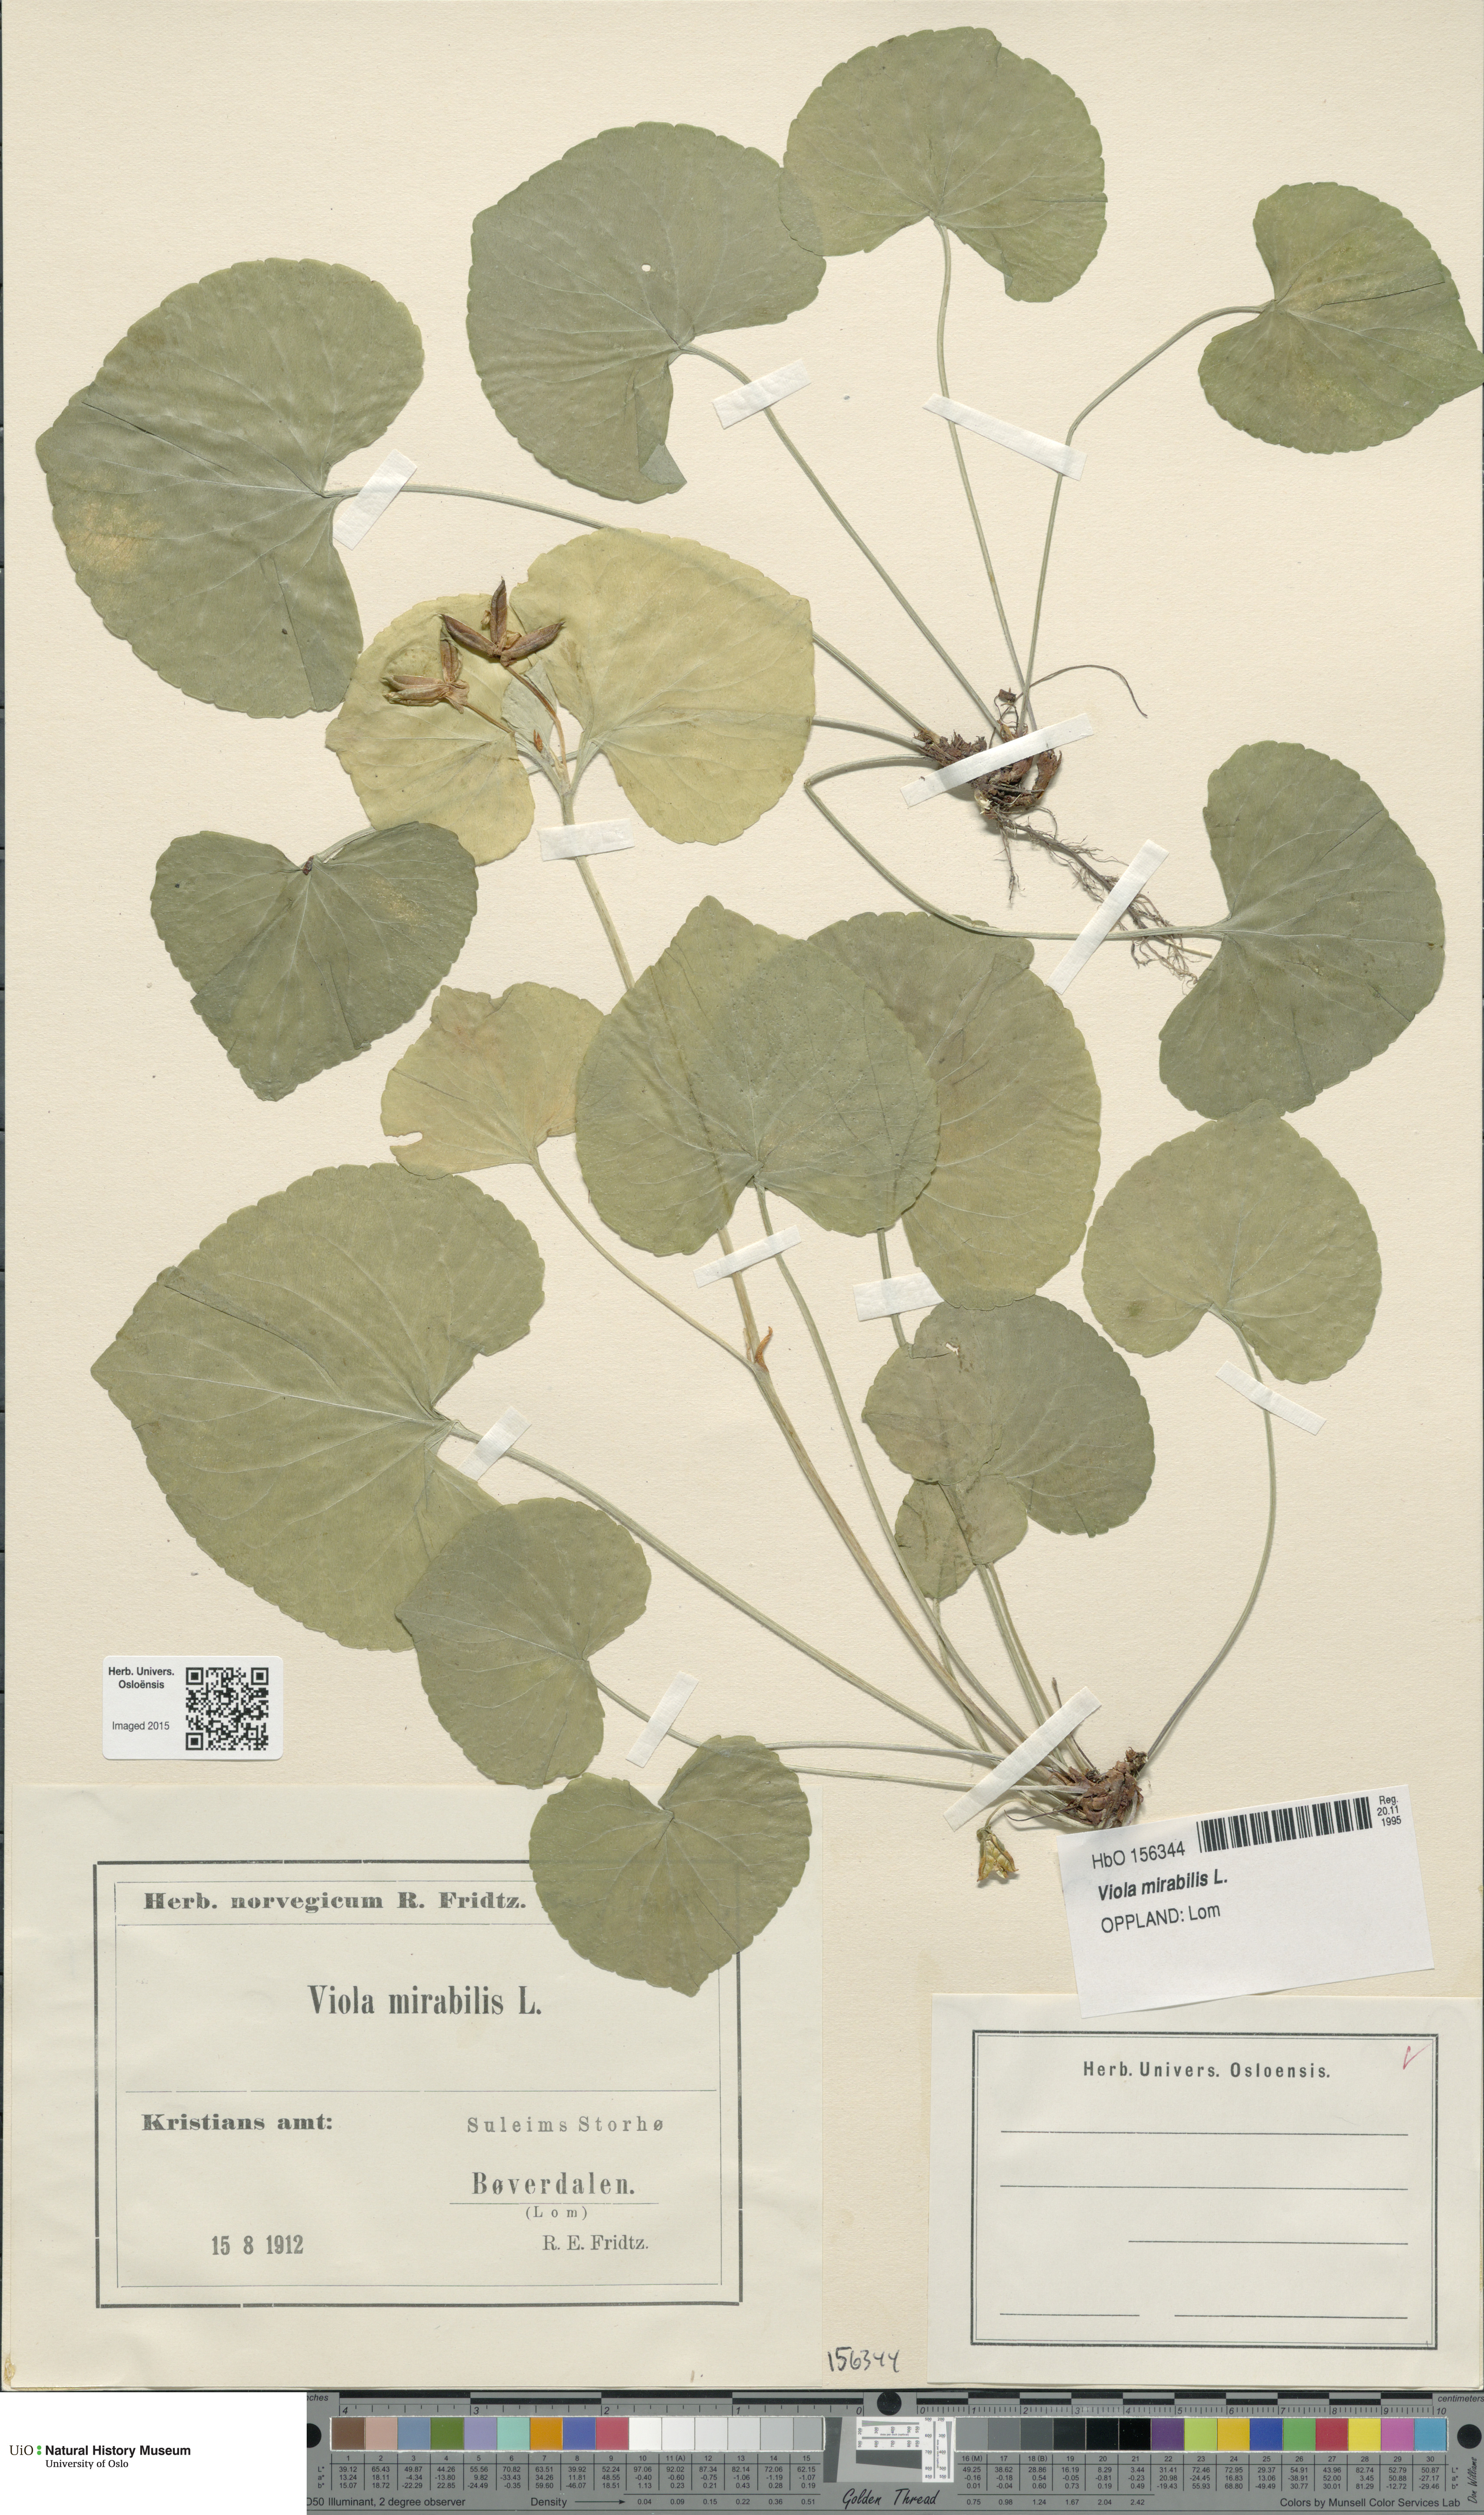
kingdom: Plantae
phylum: Tracheophyta
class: Magnoliopsida
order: Malpighiales
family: Violaceae
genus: Viola
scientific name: Viola mirabilis
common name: Wonder violet
